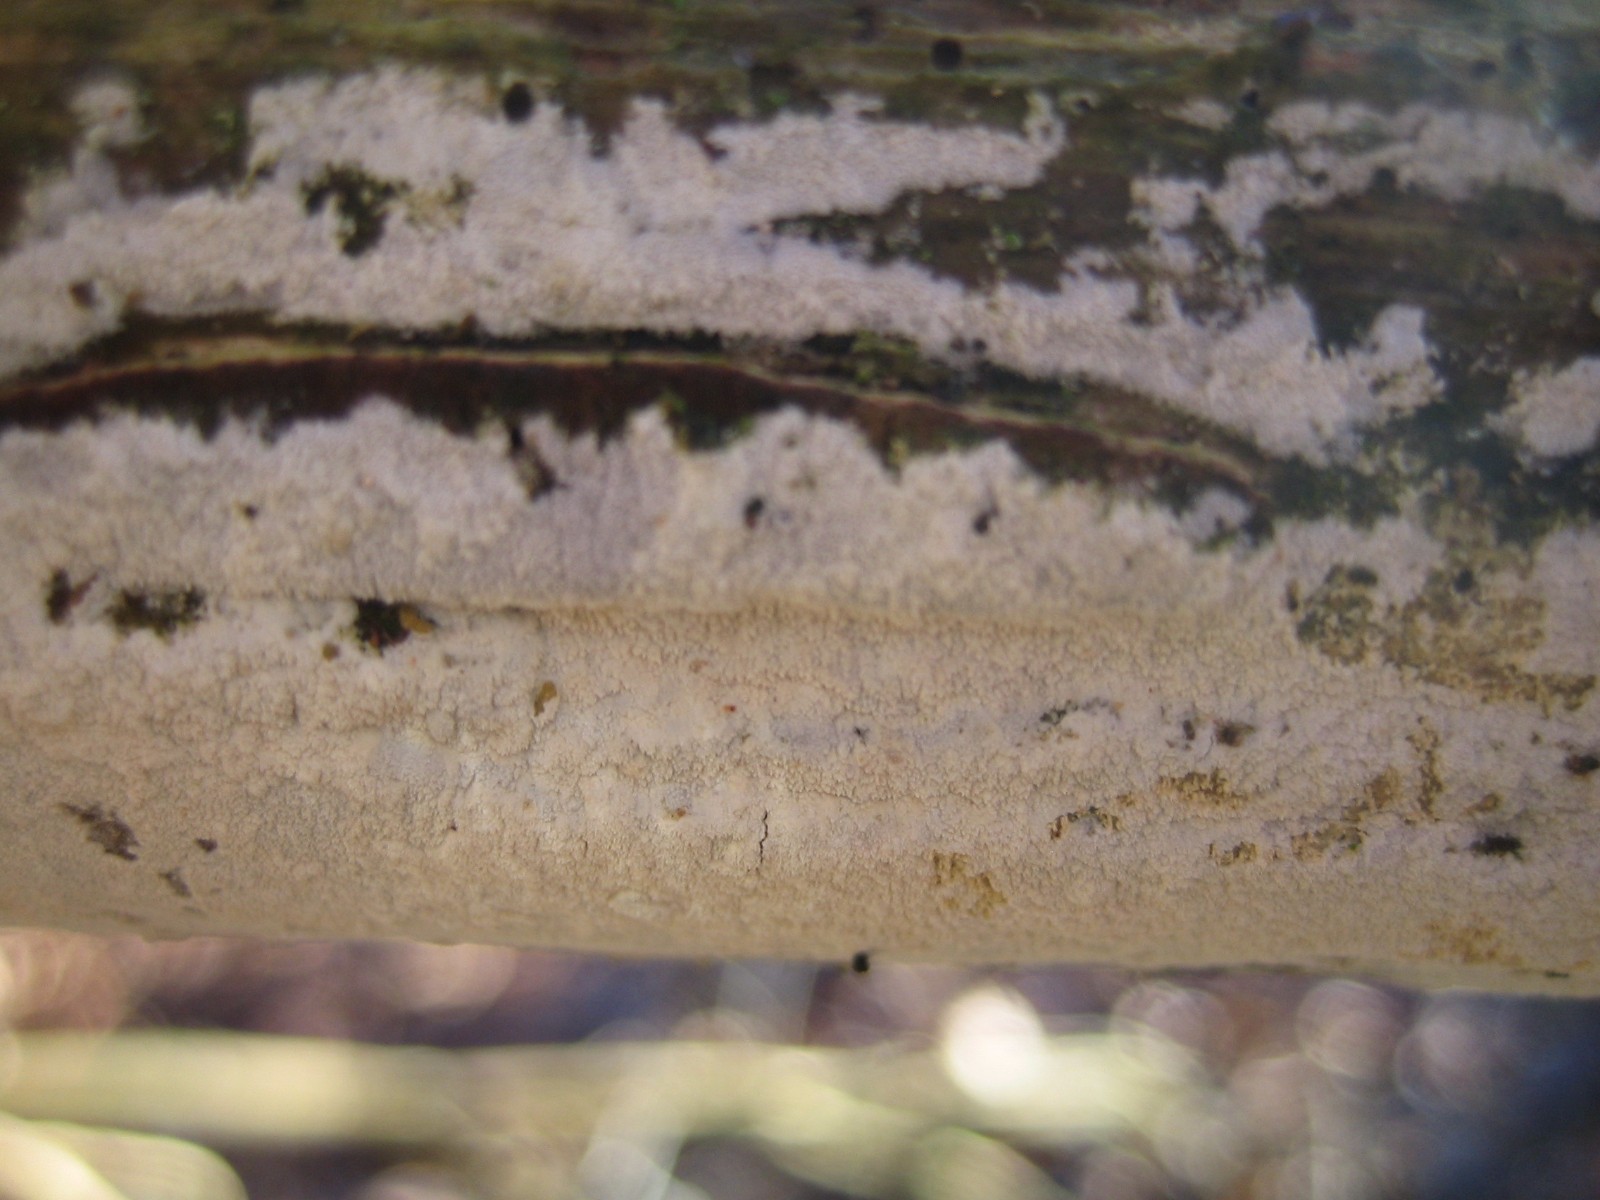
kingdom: Fungi
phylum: Basidiomycota
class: Agaricomycetes
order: Corticiales
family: Corticiaceae
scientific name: Corticiaceae
